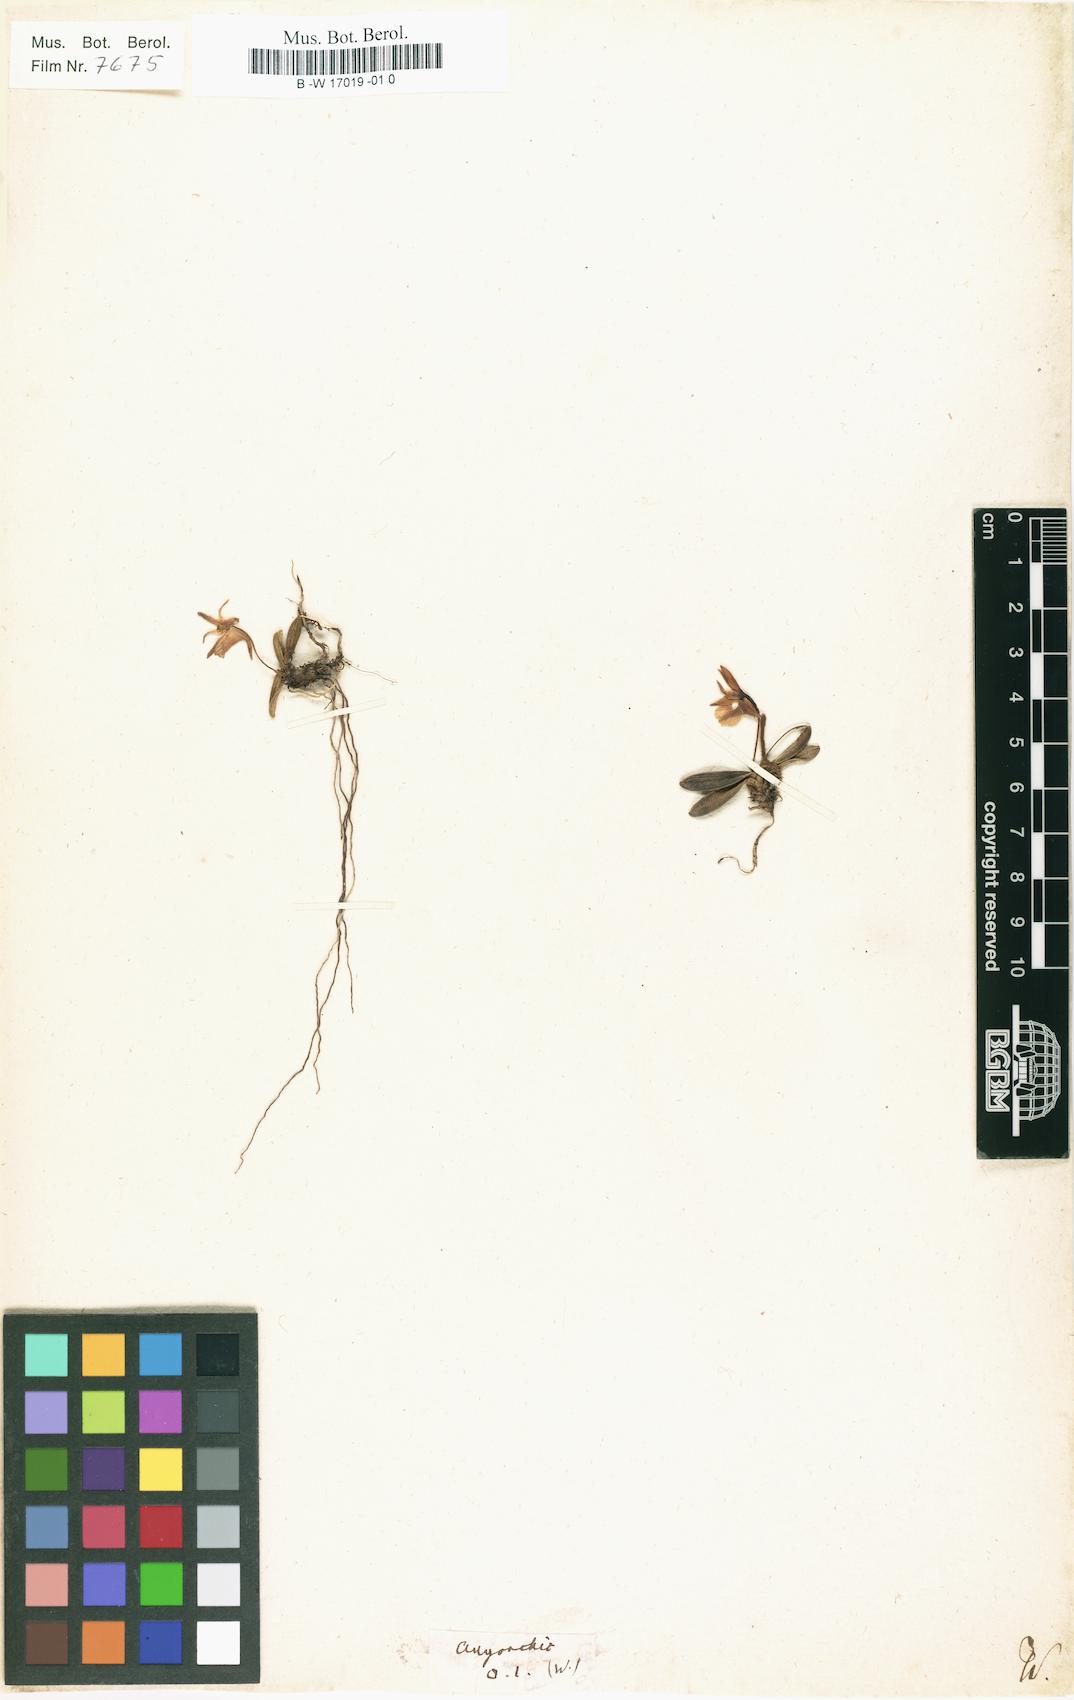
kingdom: Plantae
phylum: Tracheophyta
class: Liliopsida
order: Asparagales
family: Orchidaceae
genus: Angorchis
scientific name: Angorchis
